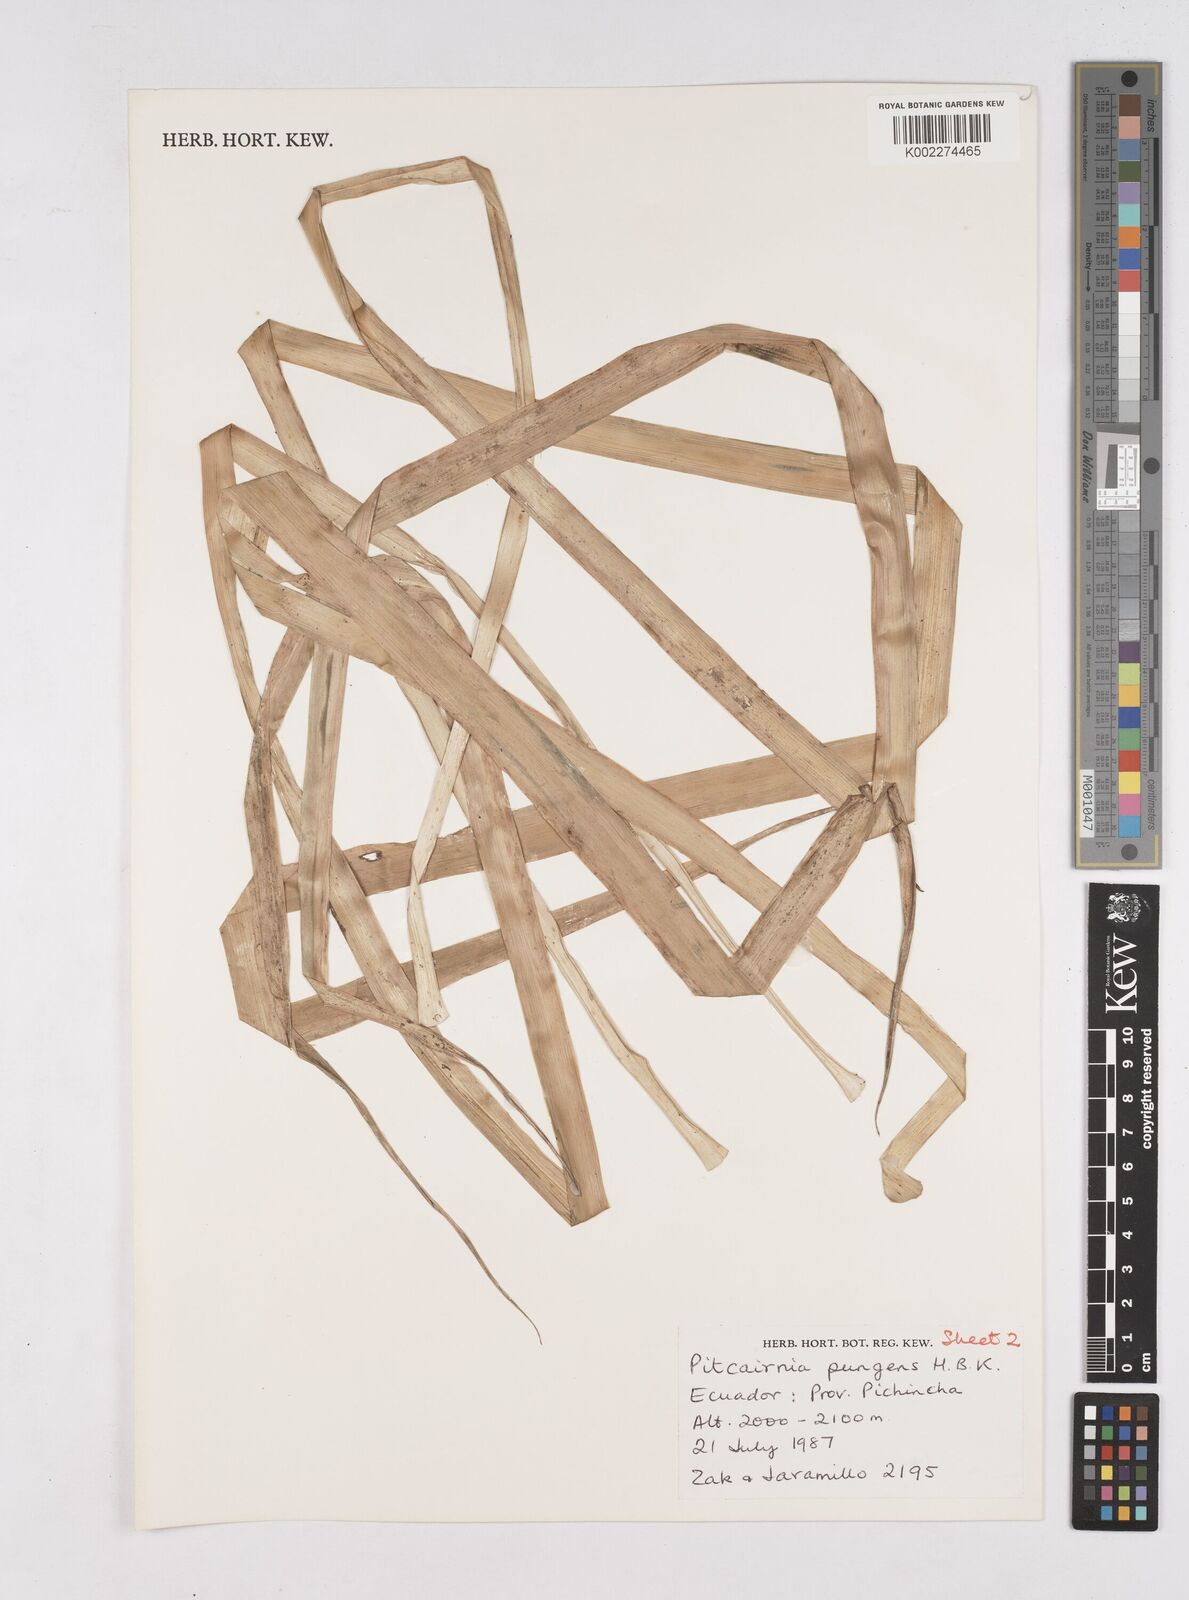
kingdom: Plantae
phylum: Tracheophyta
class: Liliopsida
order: Poales
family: Bromeliaceae
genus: Pitcairnia
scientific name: Pitcairnia pungens
